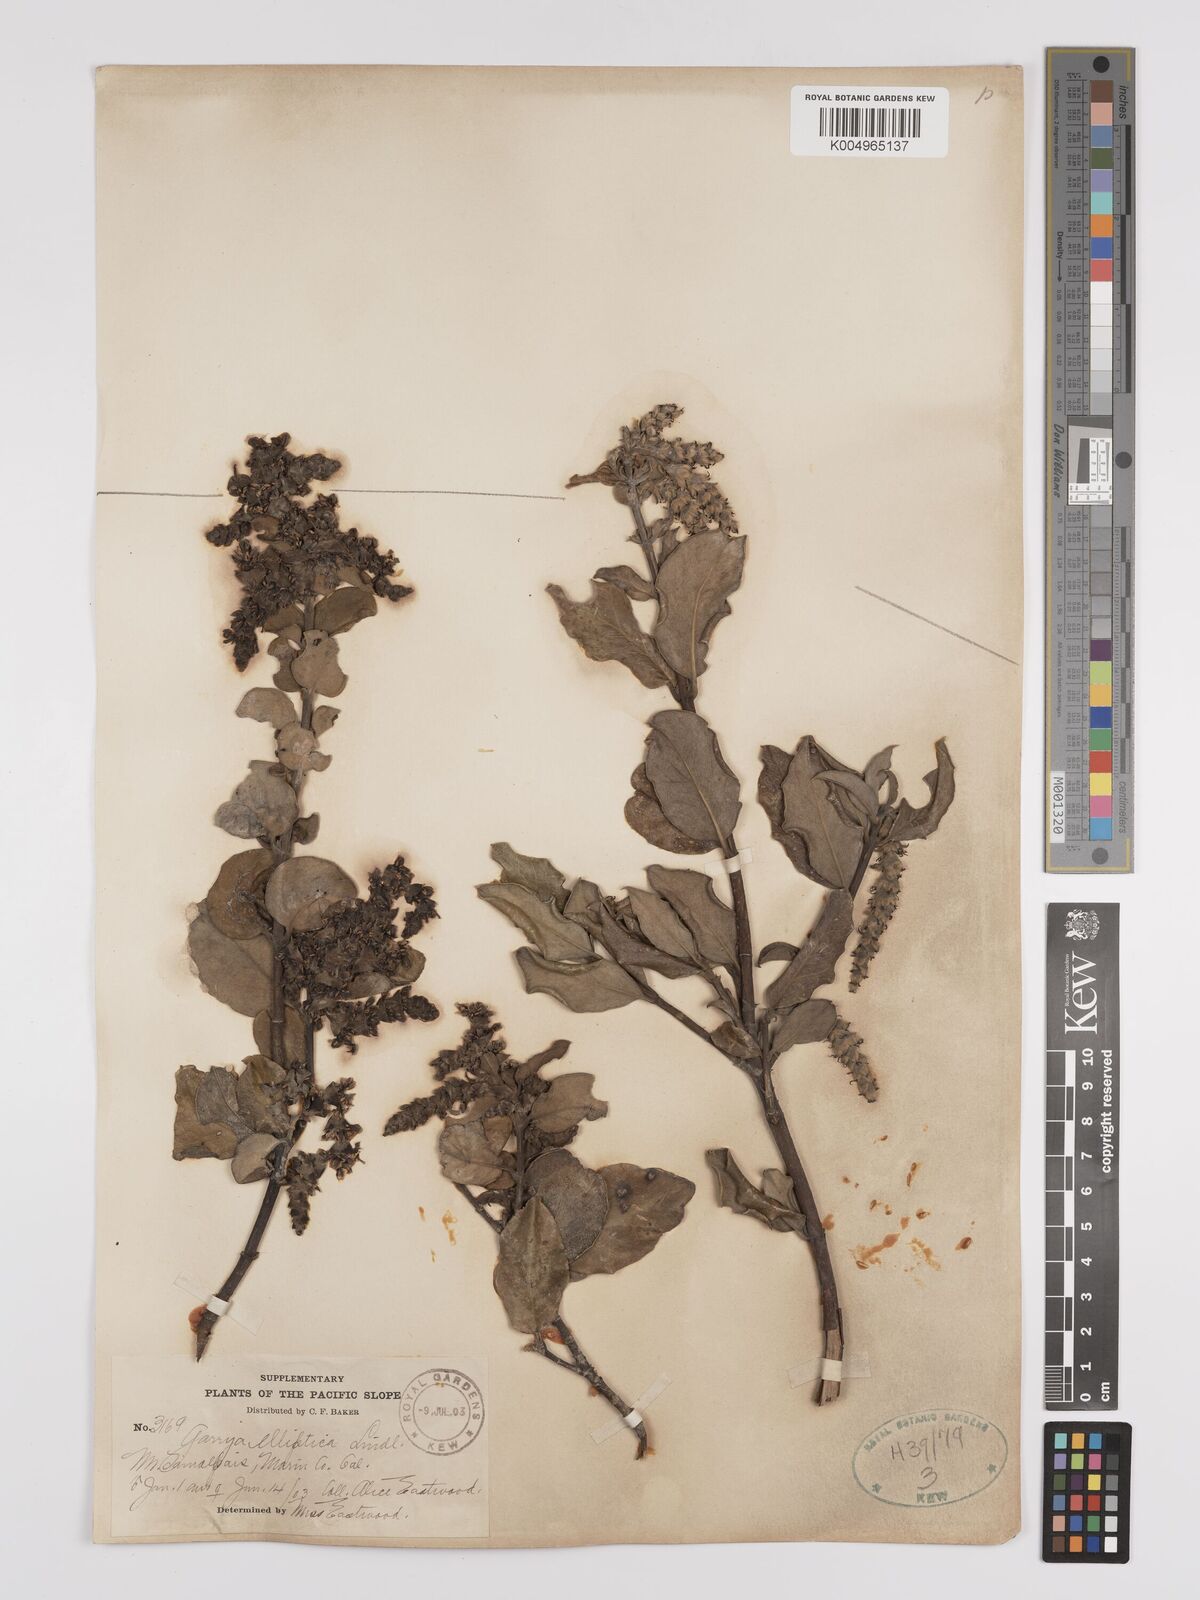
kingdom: Plantae
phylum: Tracheophyta
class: Magnoliopsida
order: Garryales
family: Garryaceae
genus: Garrya
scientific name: Garrya elliptica
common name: Silk-tassel
